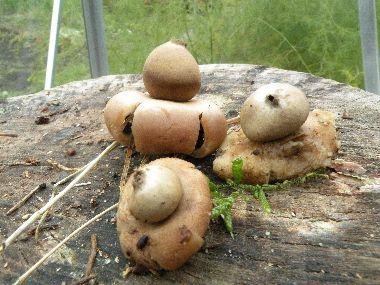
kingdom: Fungi
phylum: Basidiomycota
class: Agaricomycetes
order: Geastrales
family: Geastraceae
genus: Geastrum
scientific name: Geastrum fimbriatum
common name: frynset stjernebold
